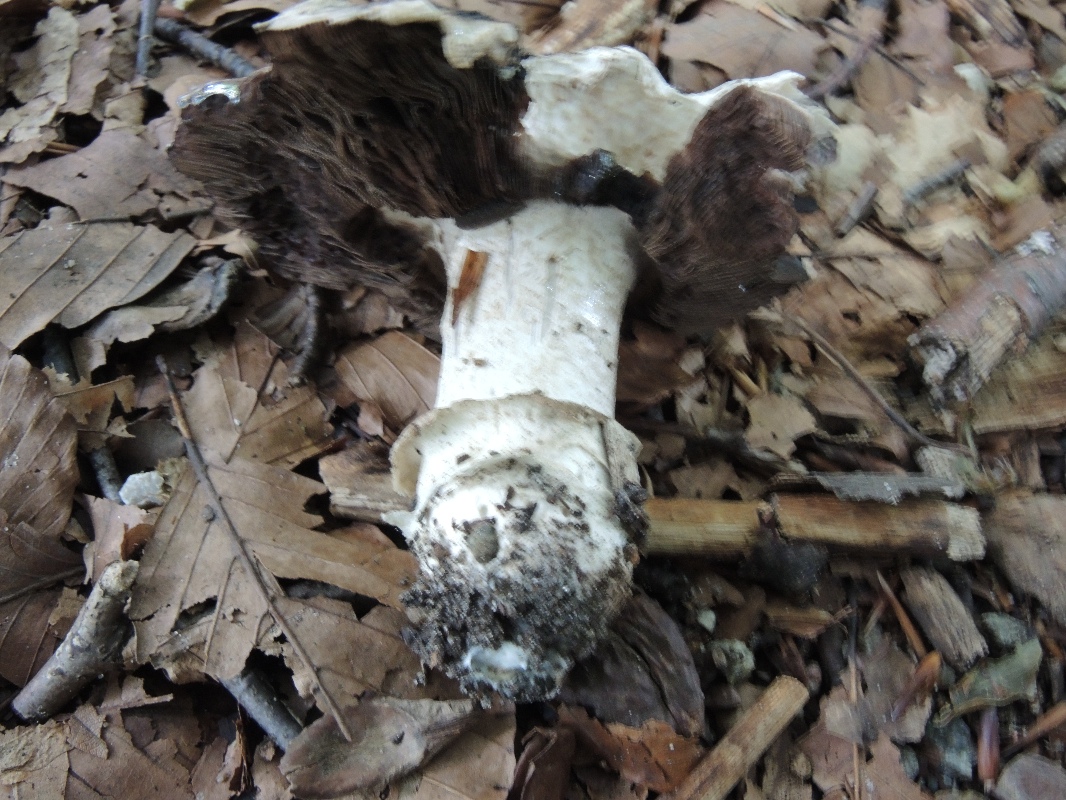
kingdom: Fungi
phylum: Basidiomycota
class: Agaricomycetes
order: Agaricales
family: Agaricaceae
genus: Agaricus
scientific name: Agaricus bitorquis
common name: vej-champignon
